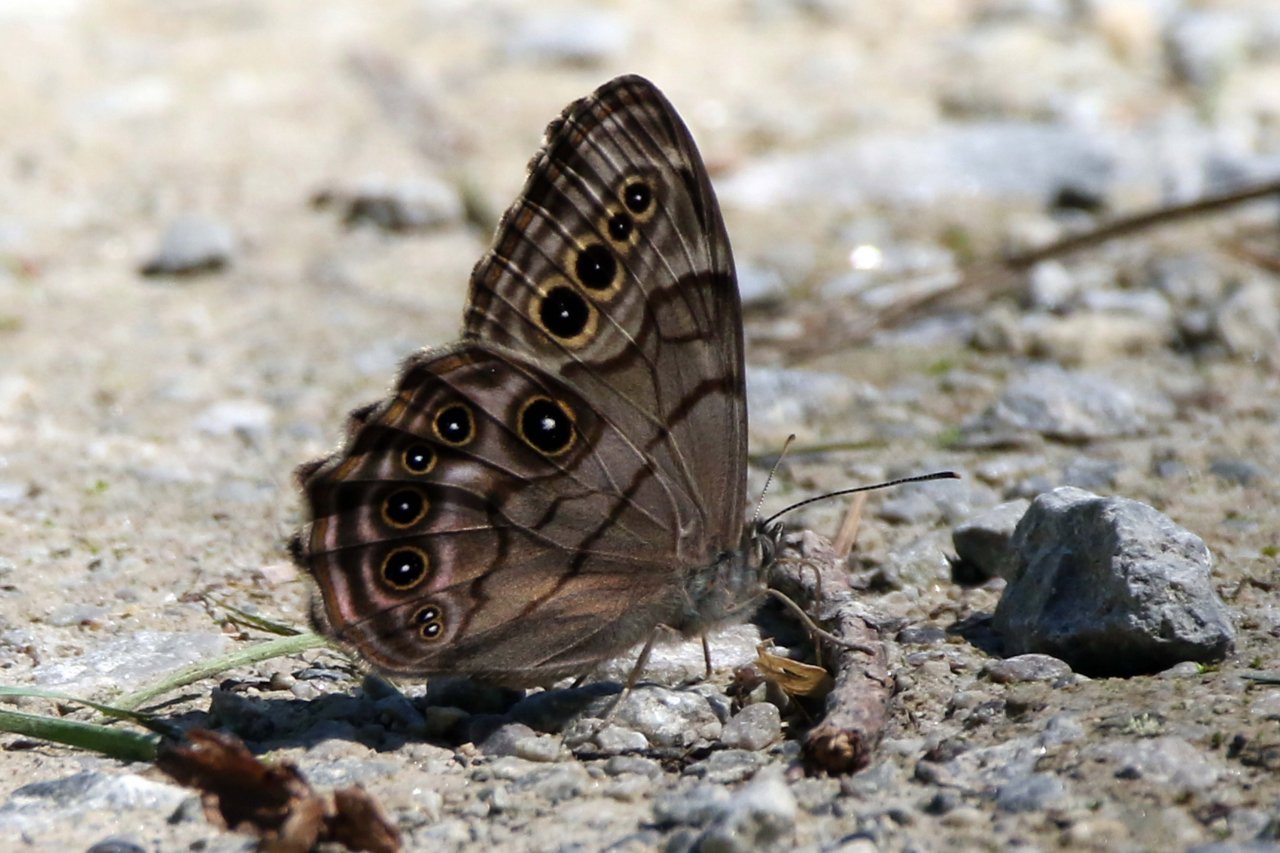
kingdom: Animalia
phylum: Arthropoda
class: Insecta
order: Lepidoptera
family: Nymphalidae
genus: Lethe
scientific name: Lethe anthedon
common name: Northern Pearly-Eye
